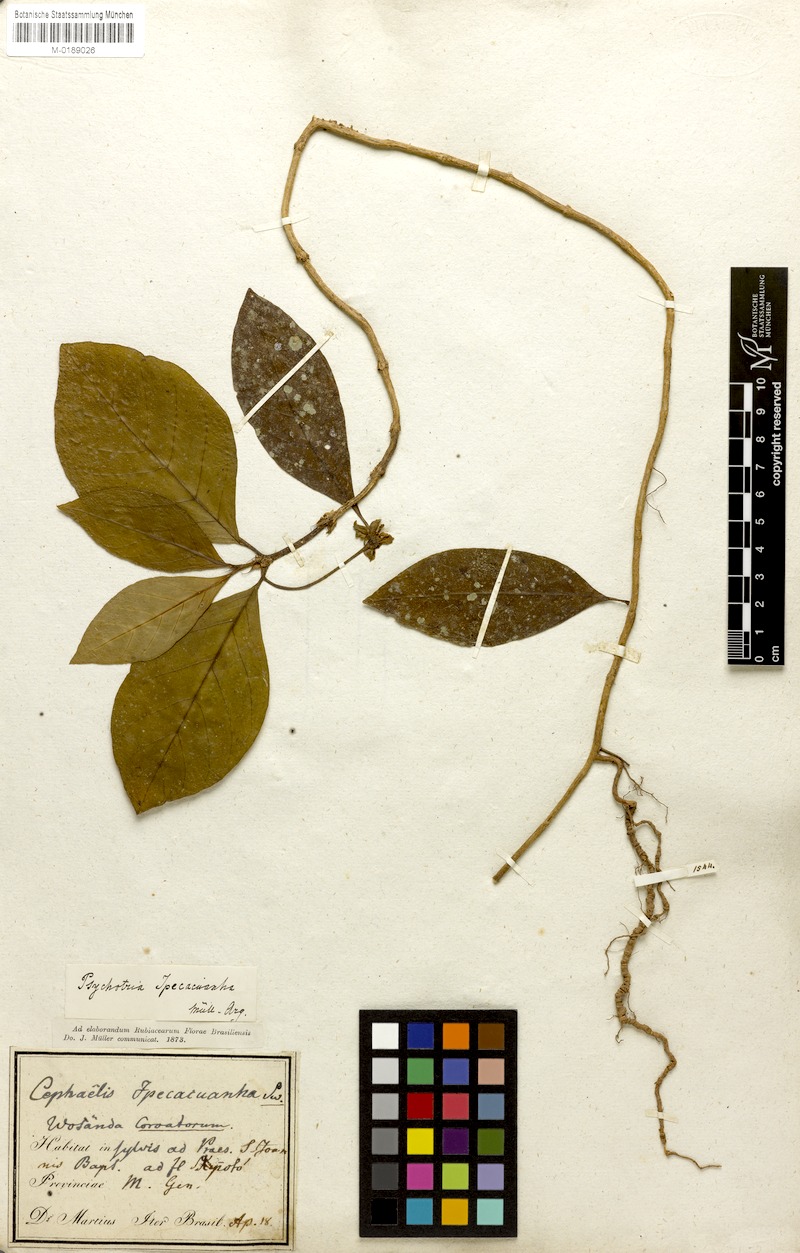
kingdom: Plantae
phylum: Tracheophyta
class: Magnoliopsida
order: Gentianales
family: Rubiaceae
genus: Carapichea
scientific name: Carapichea ipecacuanha
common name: Ipecac
